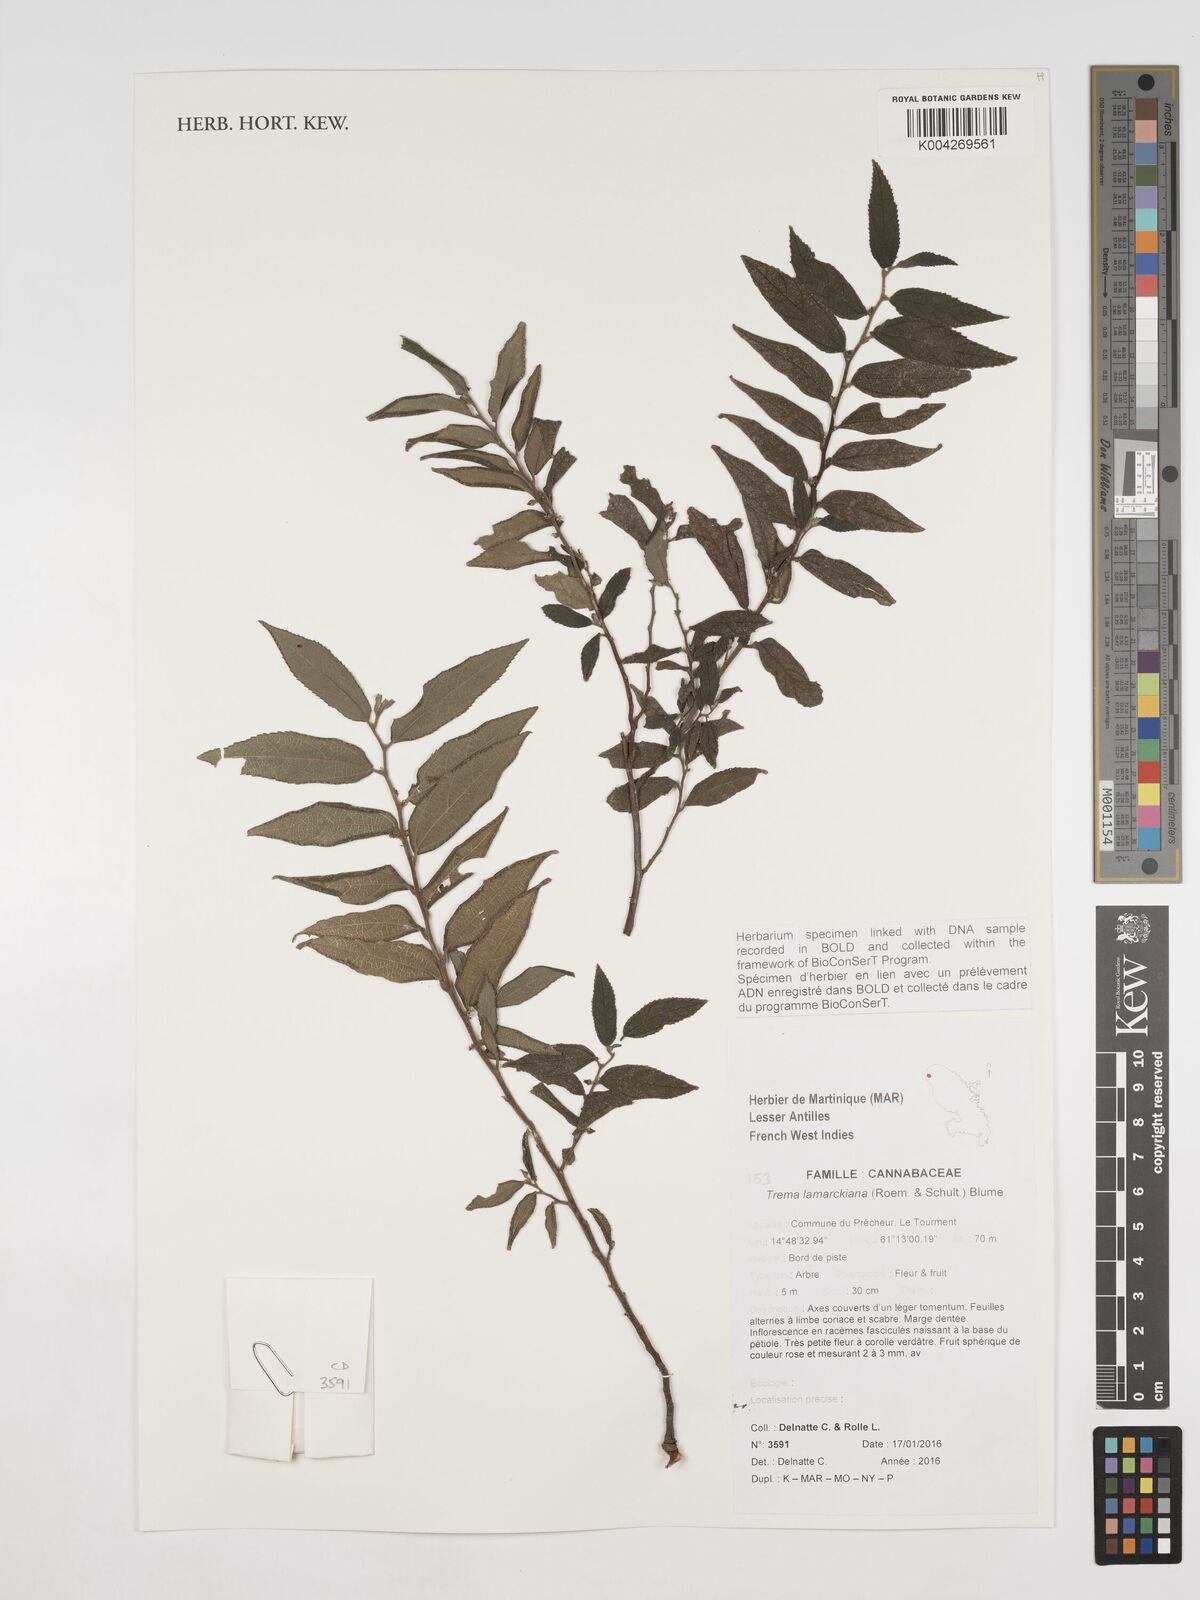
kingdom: Plantae
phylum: Tracheophyta
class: Magnoliopsida
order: Rosales
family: Cannabaceae
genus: Trema
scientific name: Trema lamarckianum
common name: Lamarck's trema
